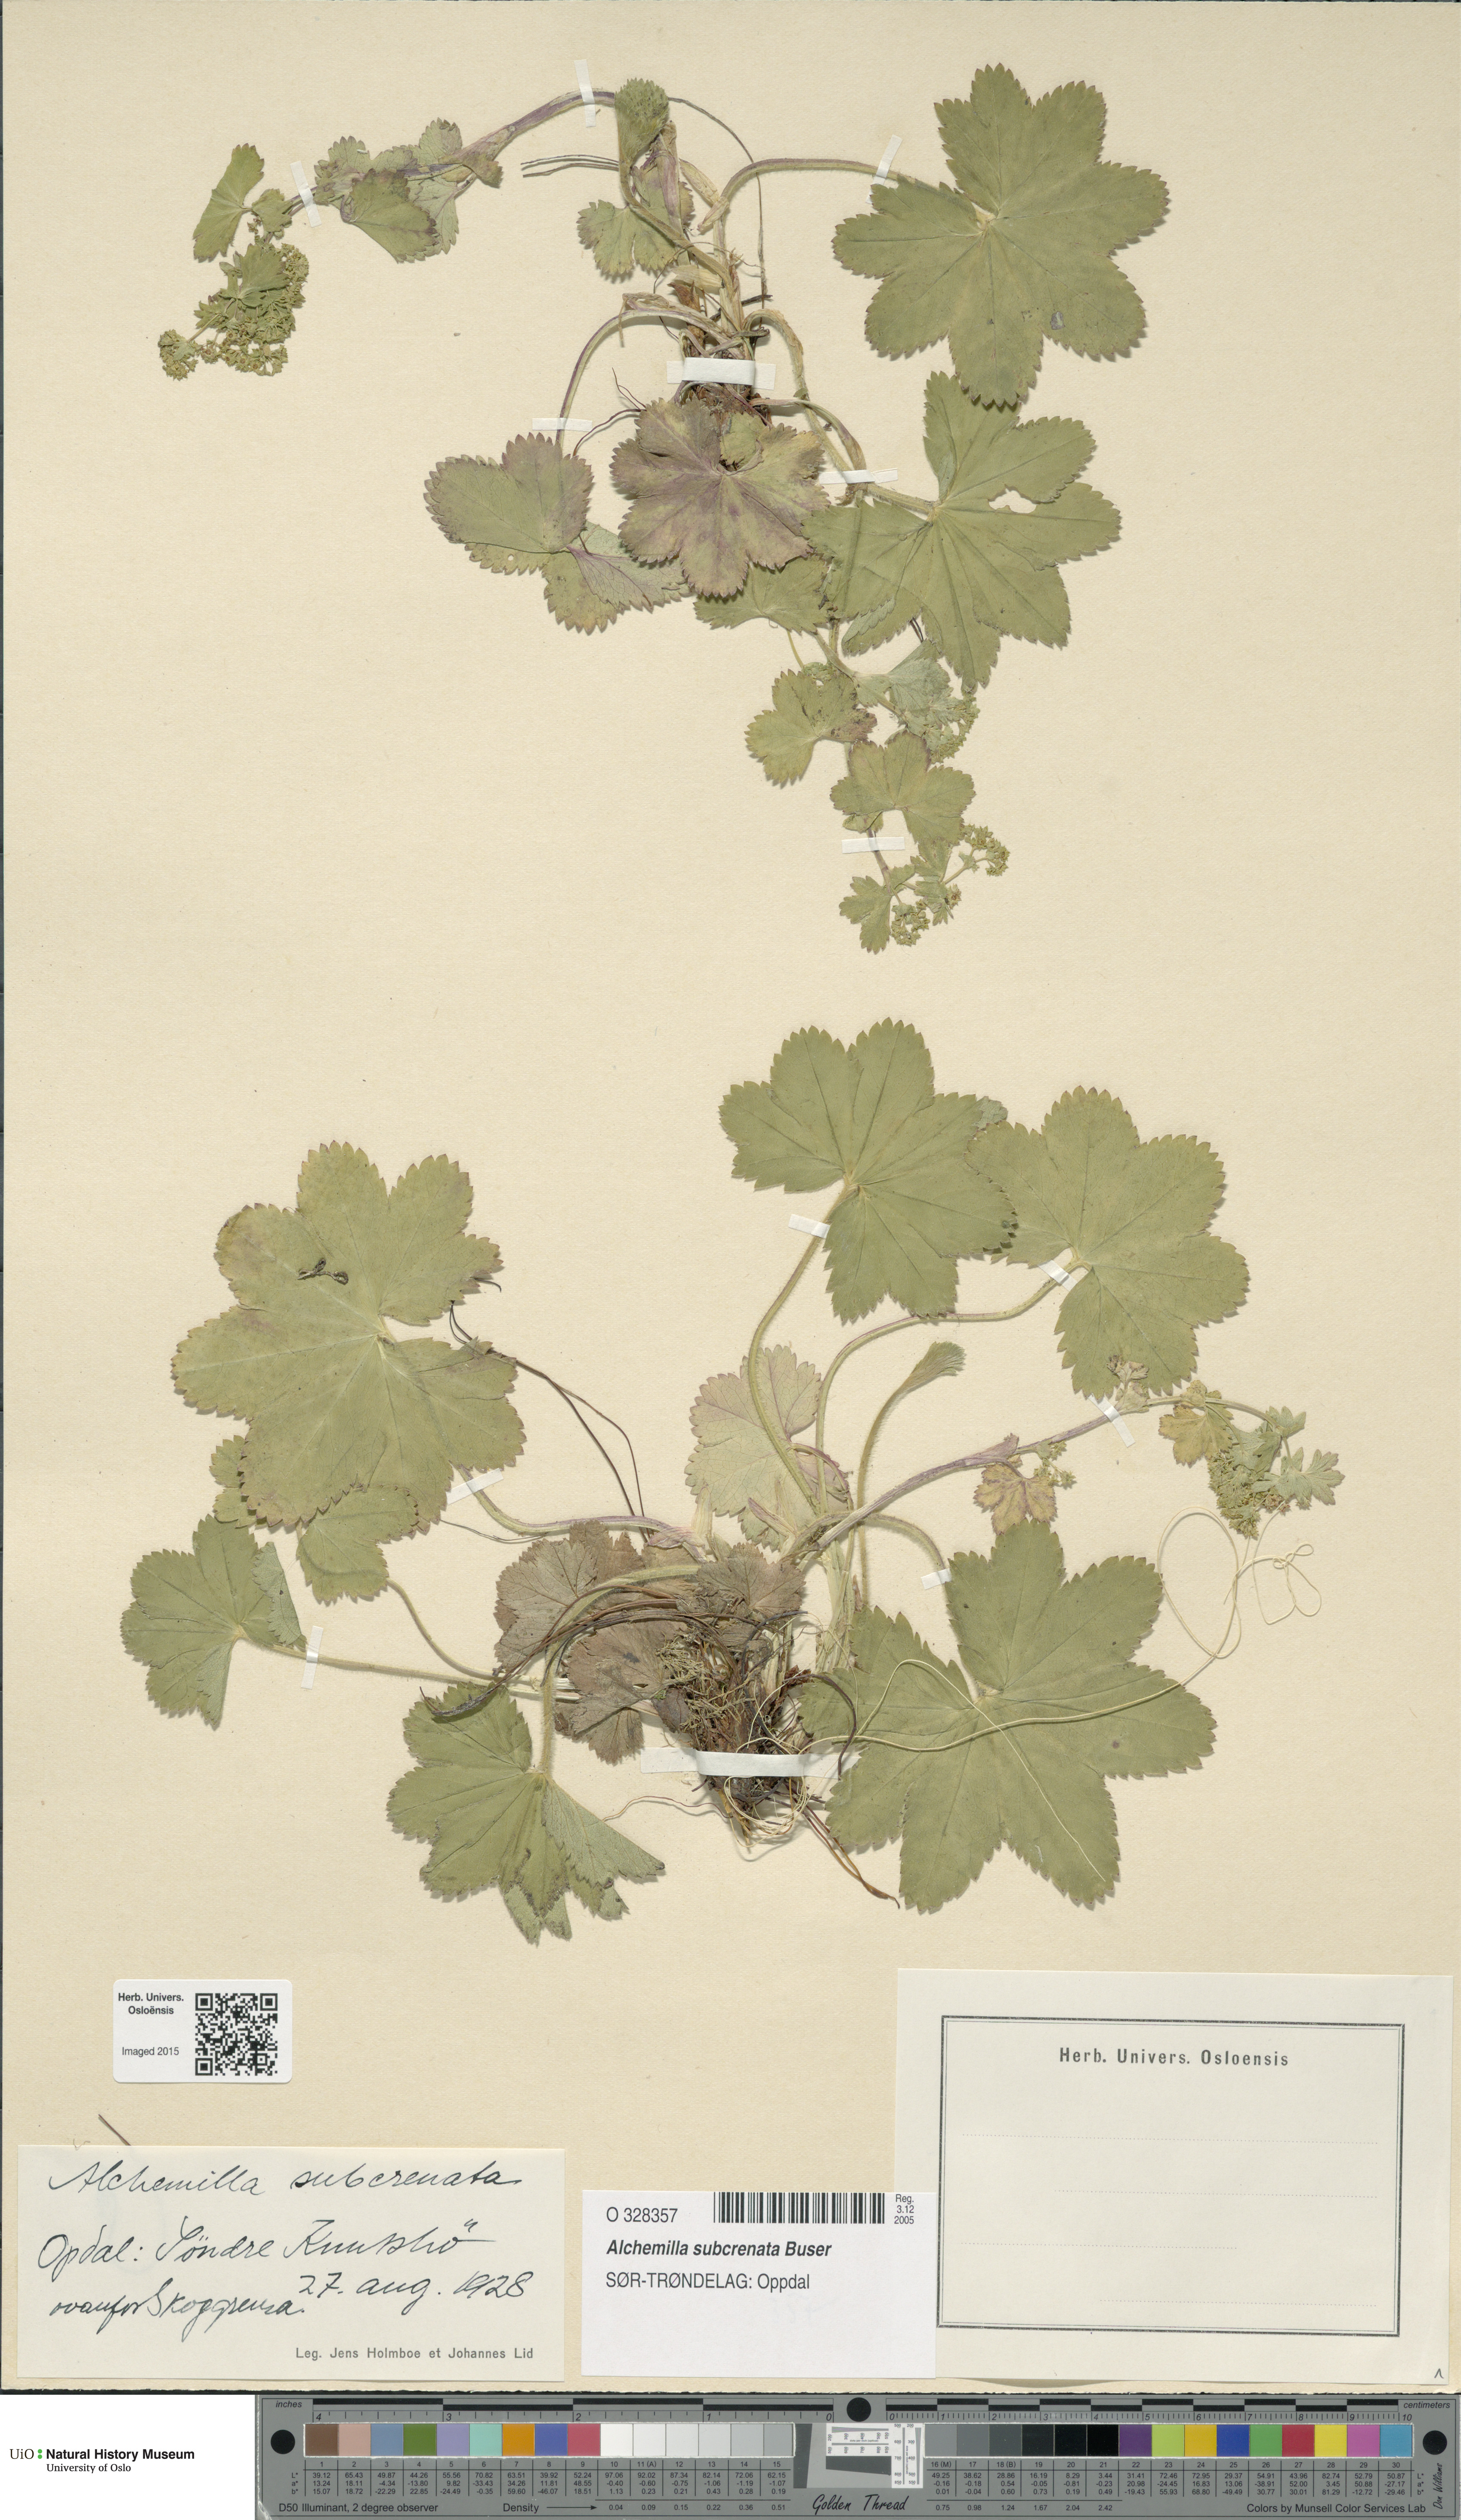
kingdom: Plantae
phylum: Tracheophyta
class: Magnoliopsida
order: Rosales
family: Rosaceae
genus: Alchemilla
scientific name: Alchemilla subcrenata
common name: Broadtooth lady's mantle
